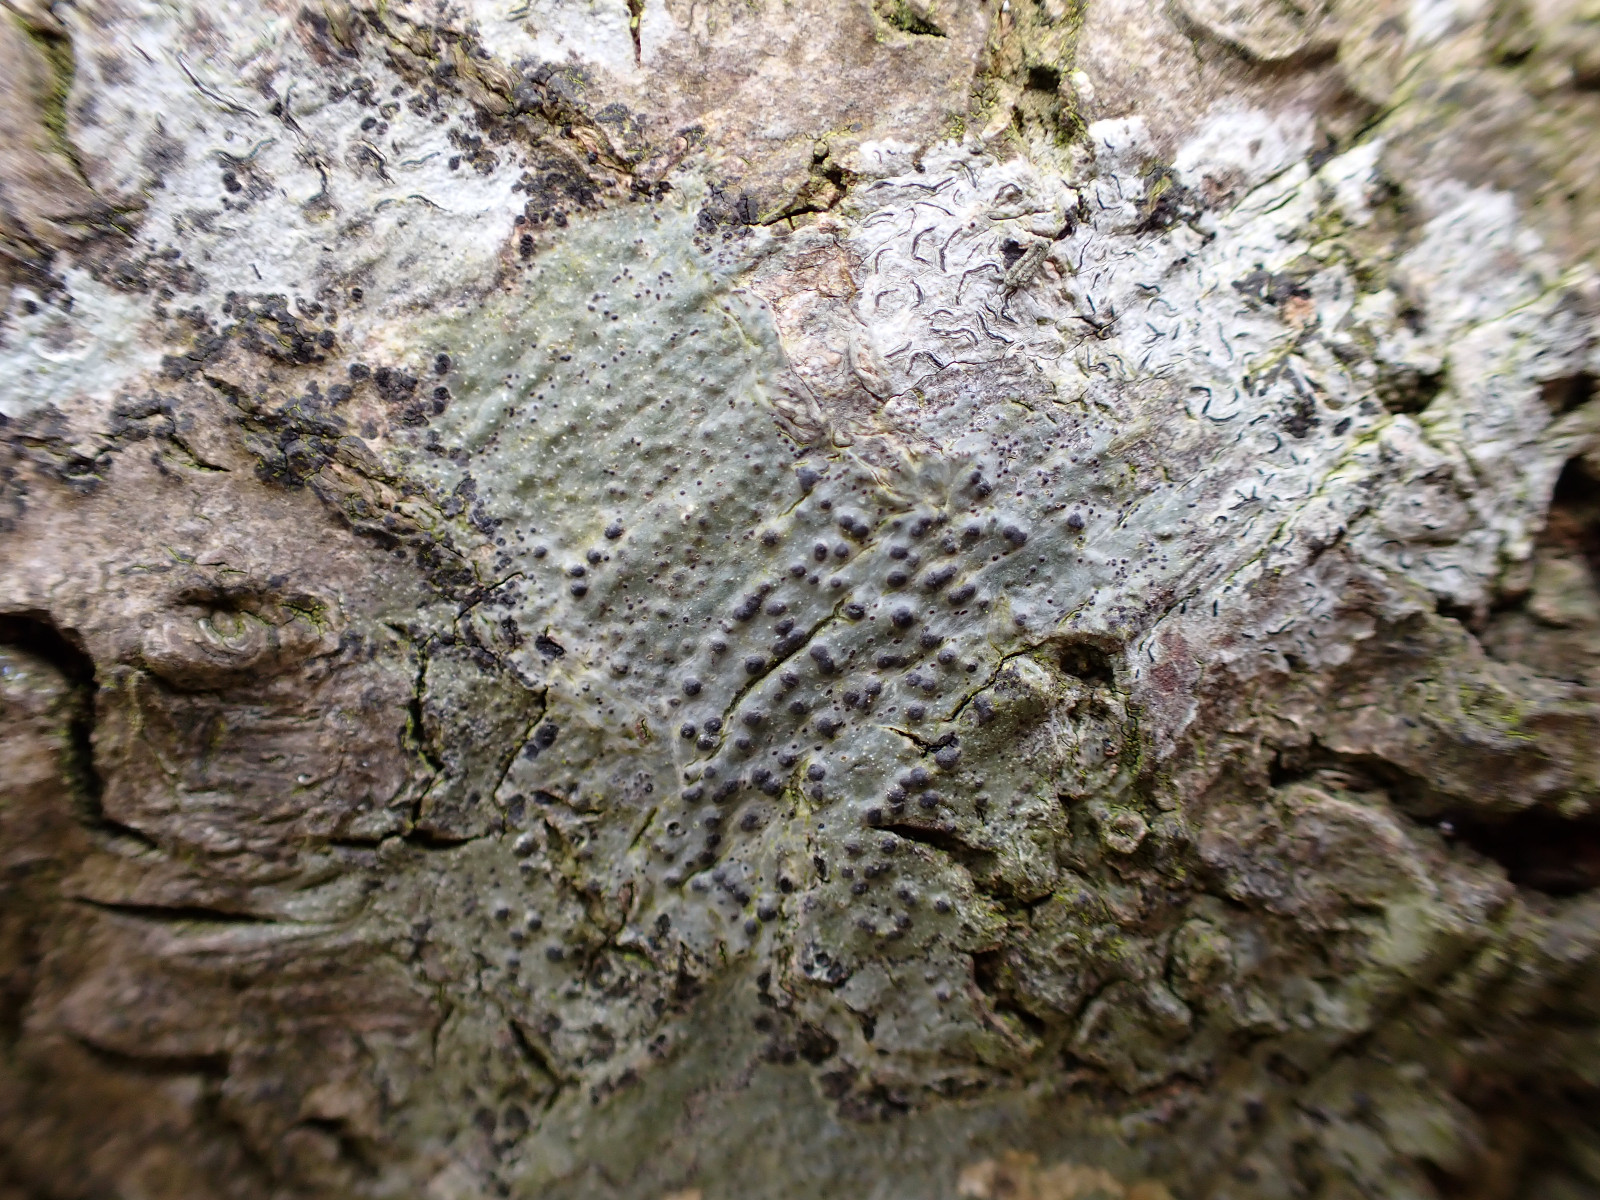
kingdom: Fungi
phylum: Ascomycota
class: Eurotiomycetes
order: Pyrenulales
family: Pyrenulaceae
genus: Pyrenula
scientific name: Pyrenula nitida
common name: glinsende kernelav
